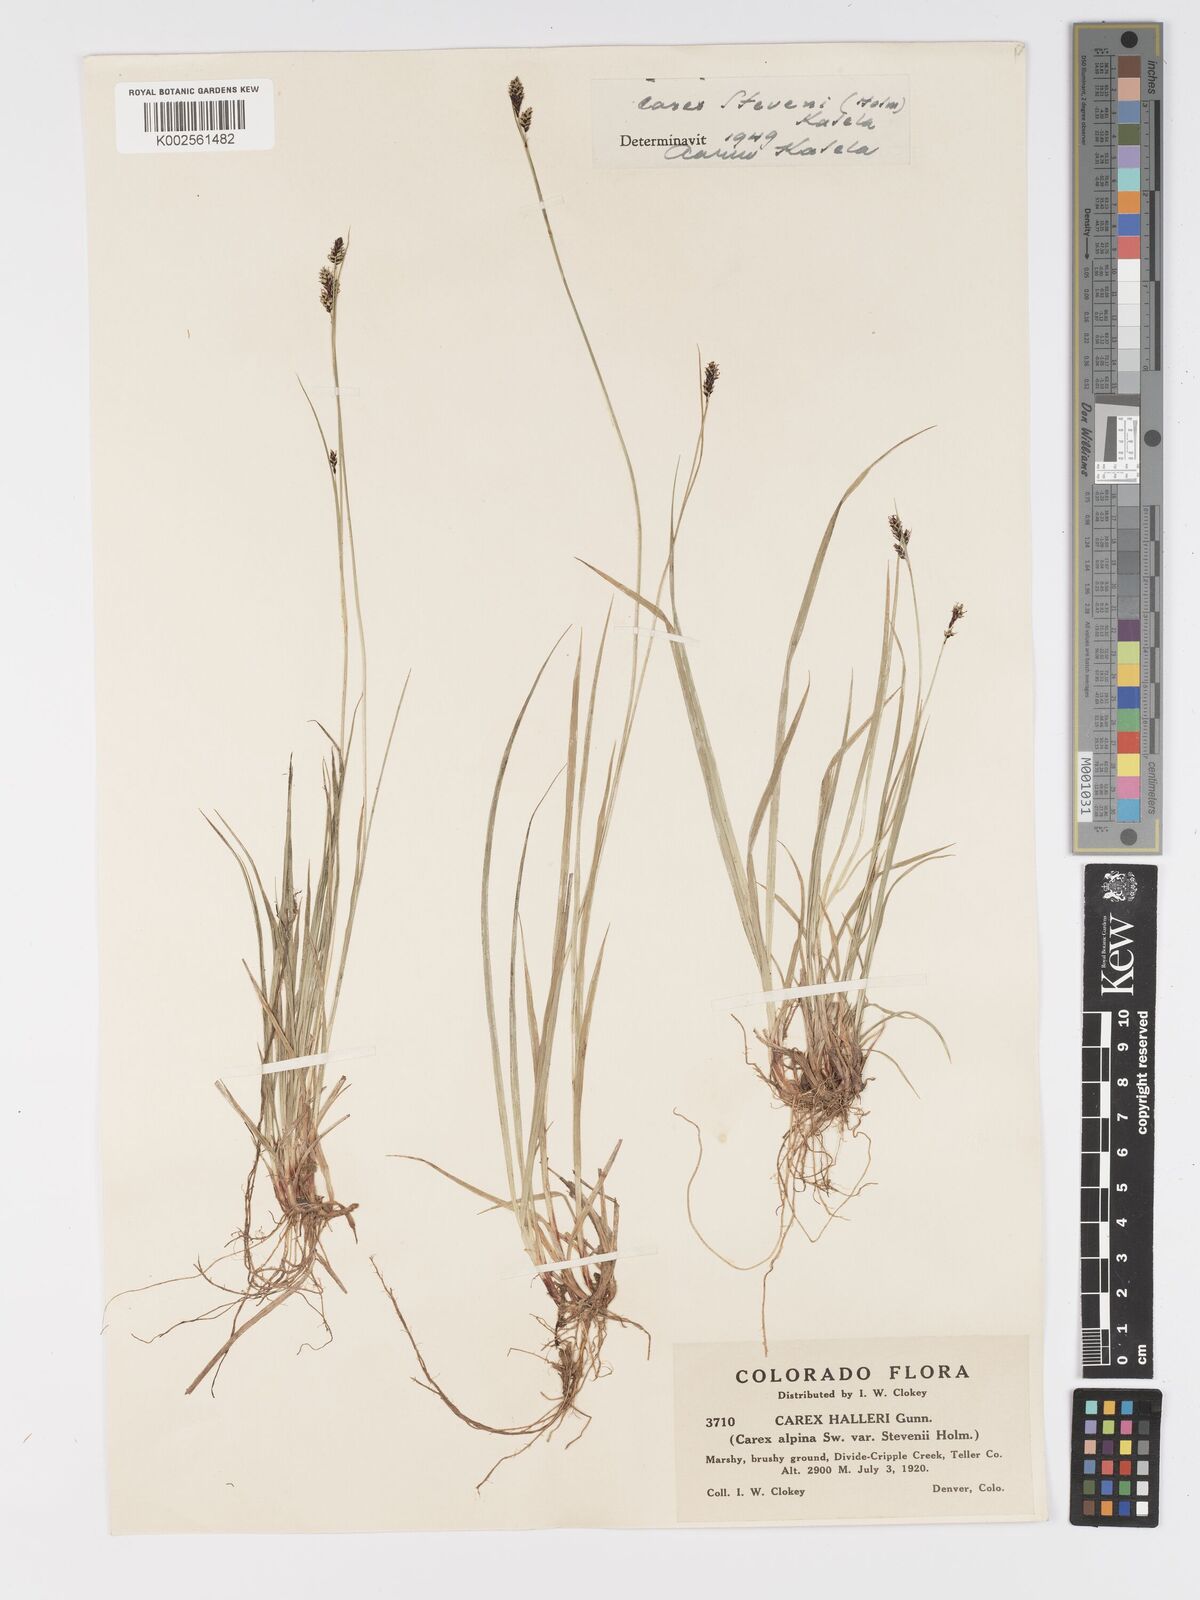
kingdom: Plantae
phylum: Tracheophyta
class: Liliopsida
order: Poales
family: Cyperaceae
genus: Carex
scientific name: Carex stevenii
